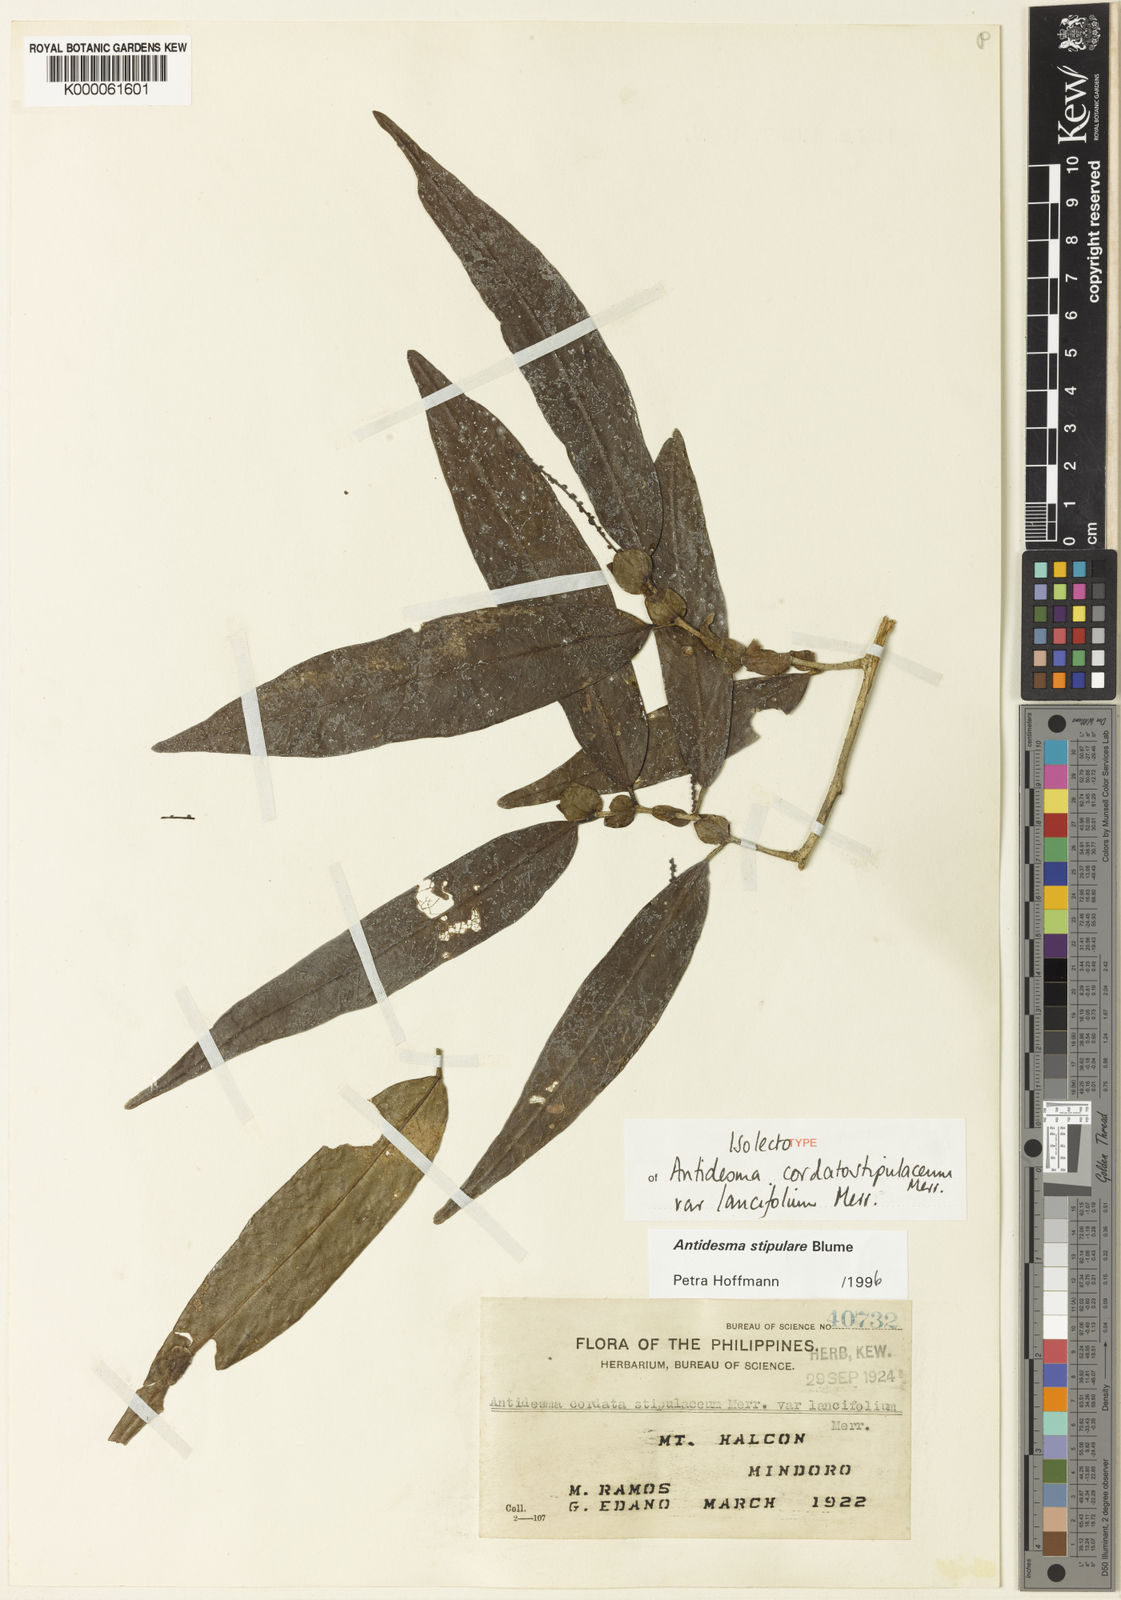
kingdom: Plantae
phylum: Tracheophyta
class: Magnoliopsida
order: Malpighiales
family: Phyllanthaceae
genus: Antidesma
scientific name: Antidesma stipulare
